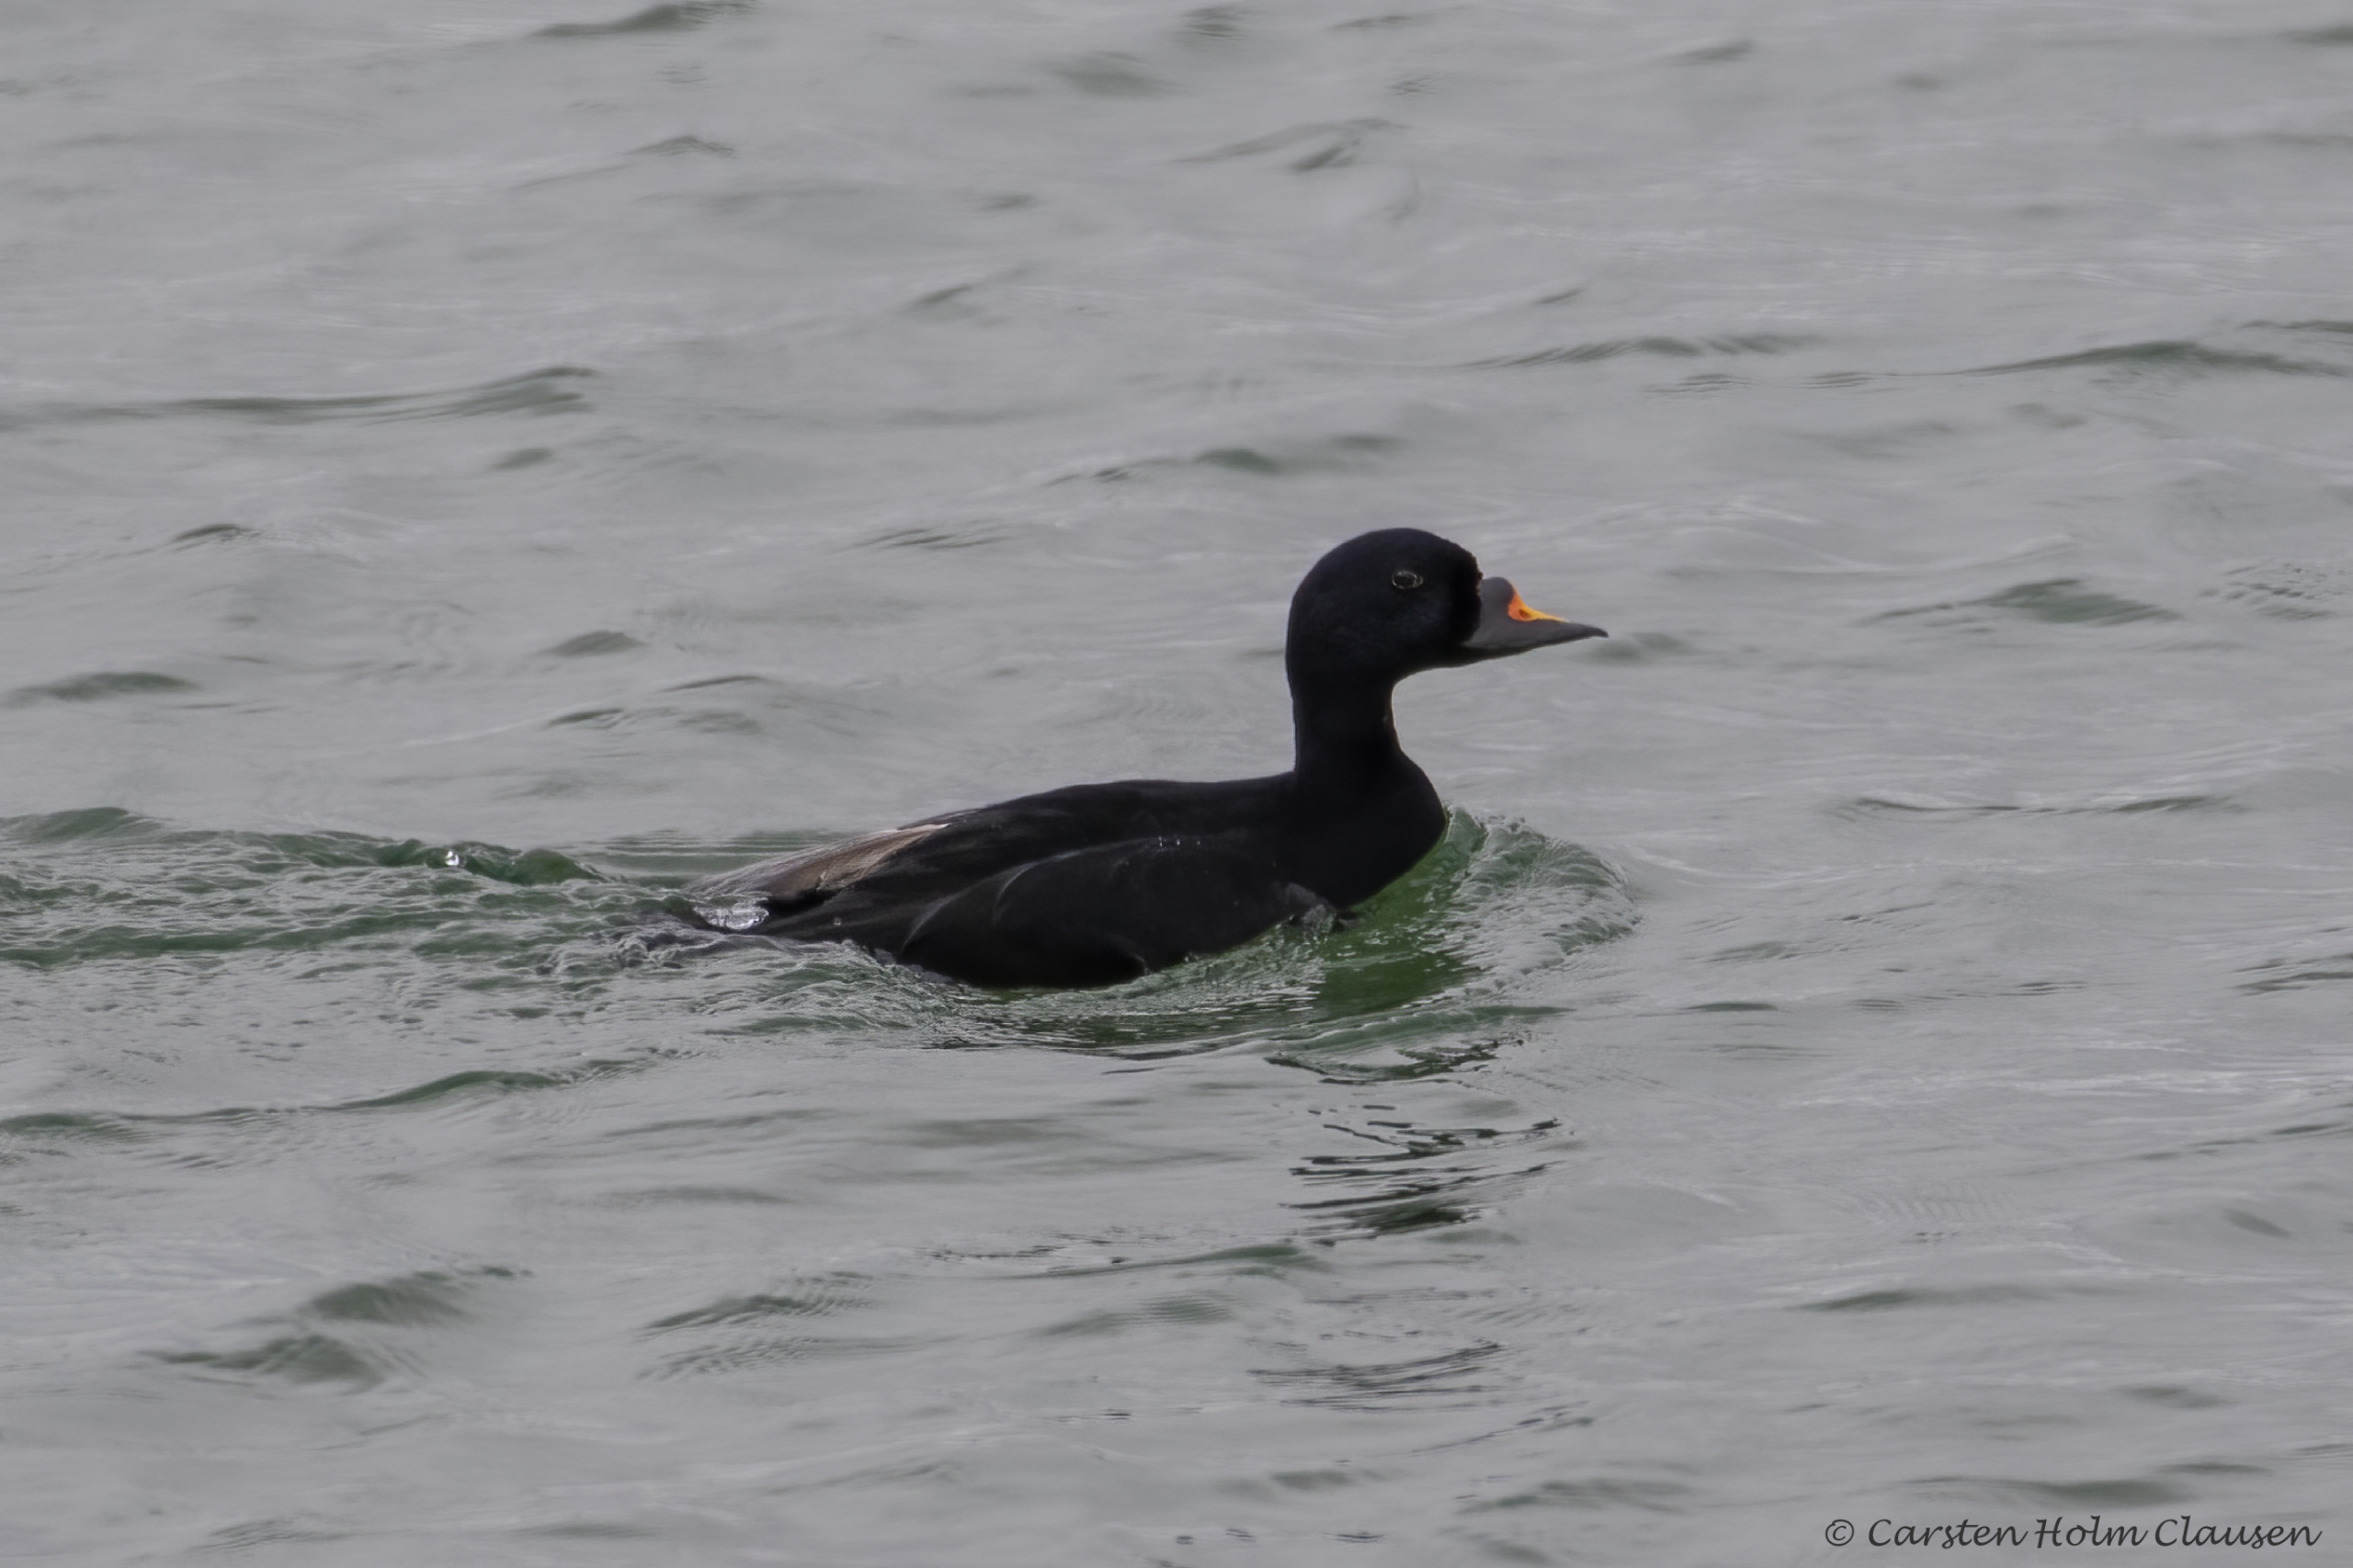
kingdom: Animalia
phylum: Chordata
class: Aves
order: Anseriformes
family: Anatidae
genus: Melanitta
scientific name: Melanitta nigra
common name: Sortand
